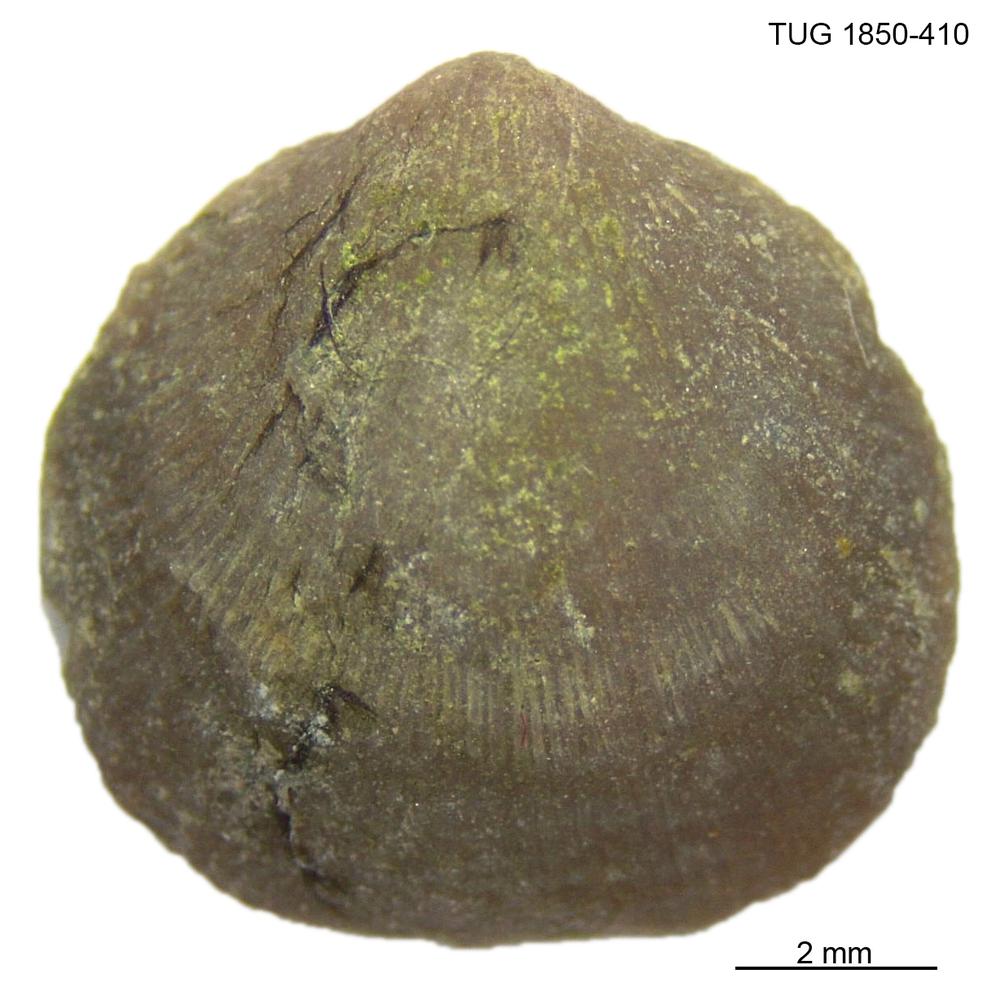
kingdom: Animalia
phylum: Brachiopoda
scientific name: Brachiopoda
